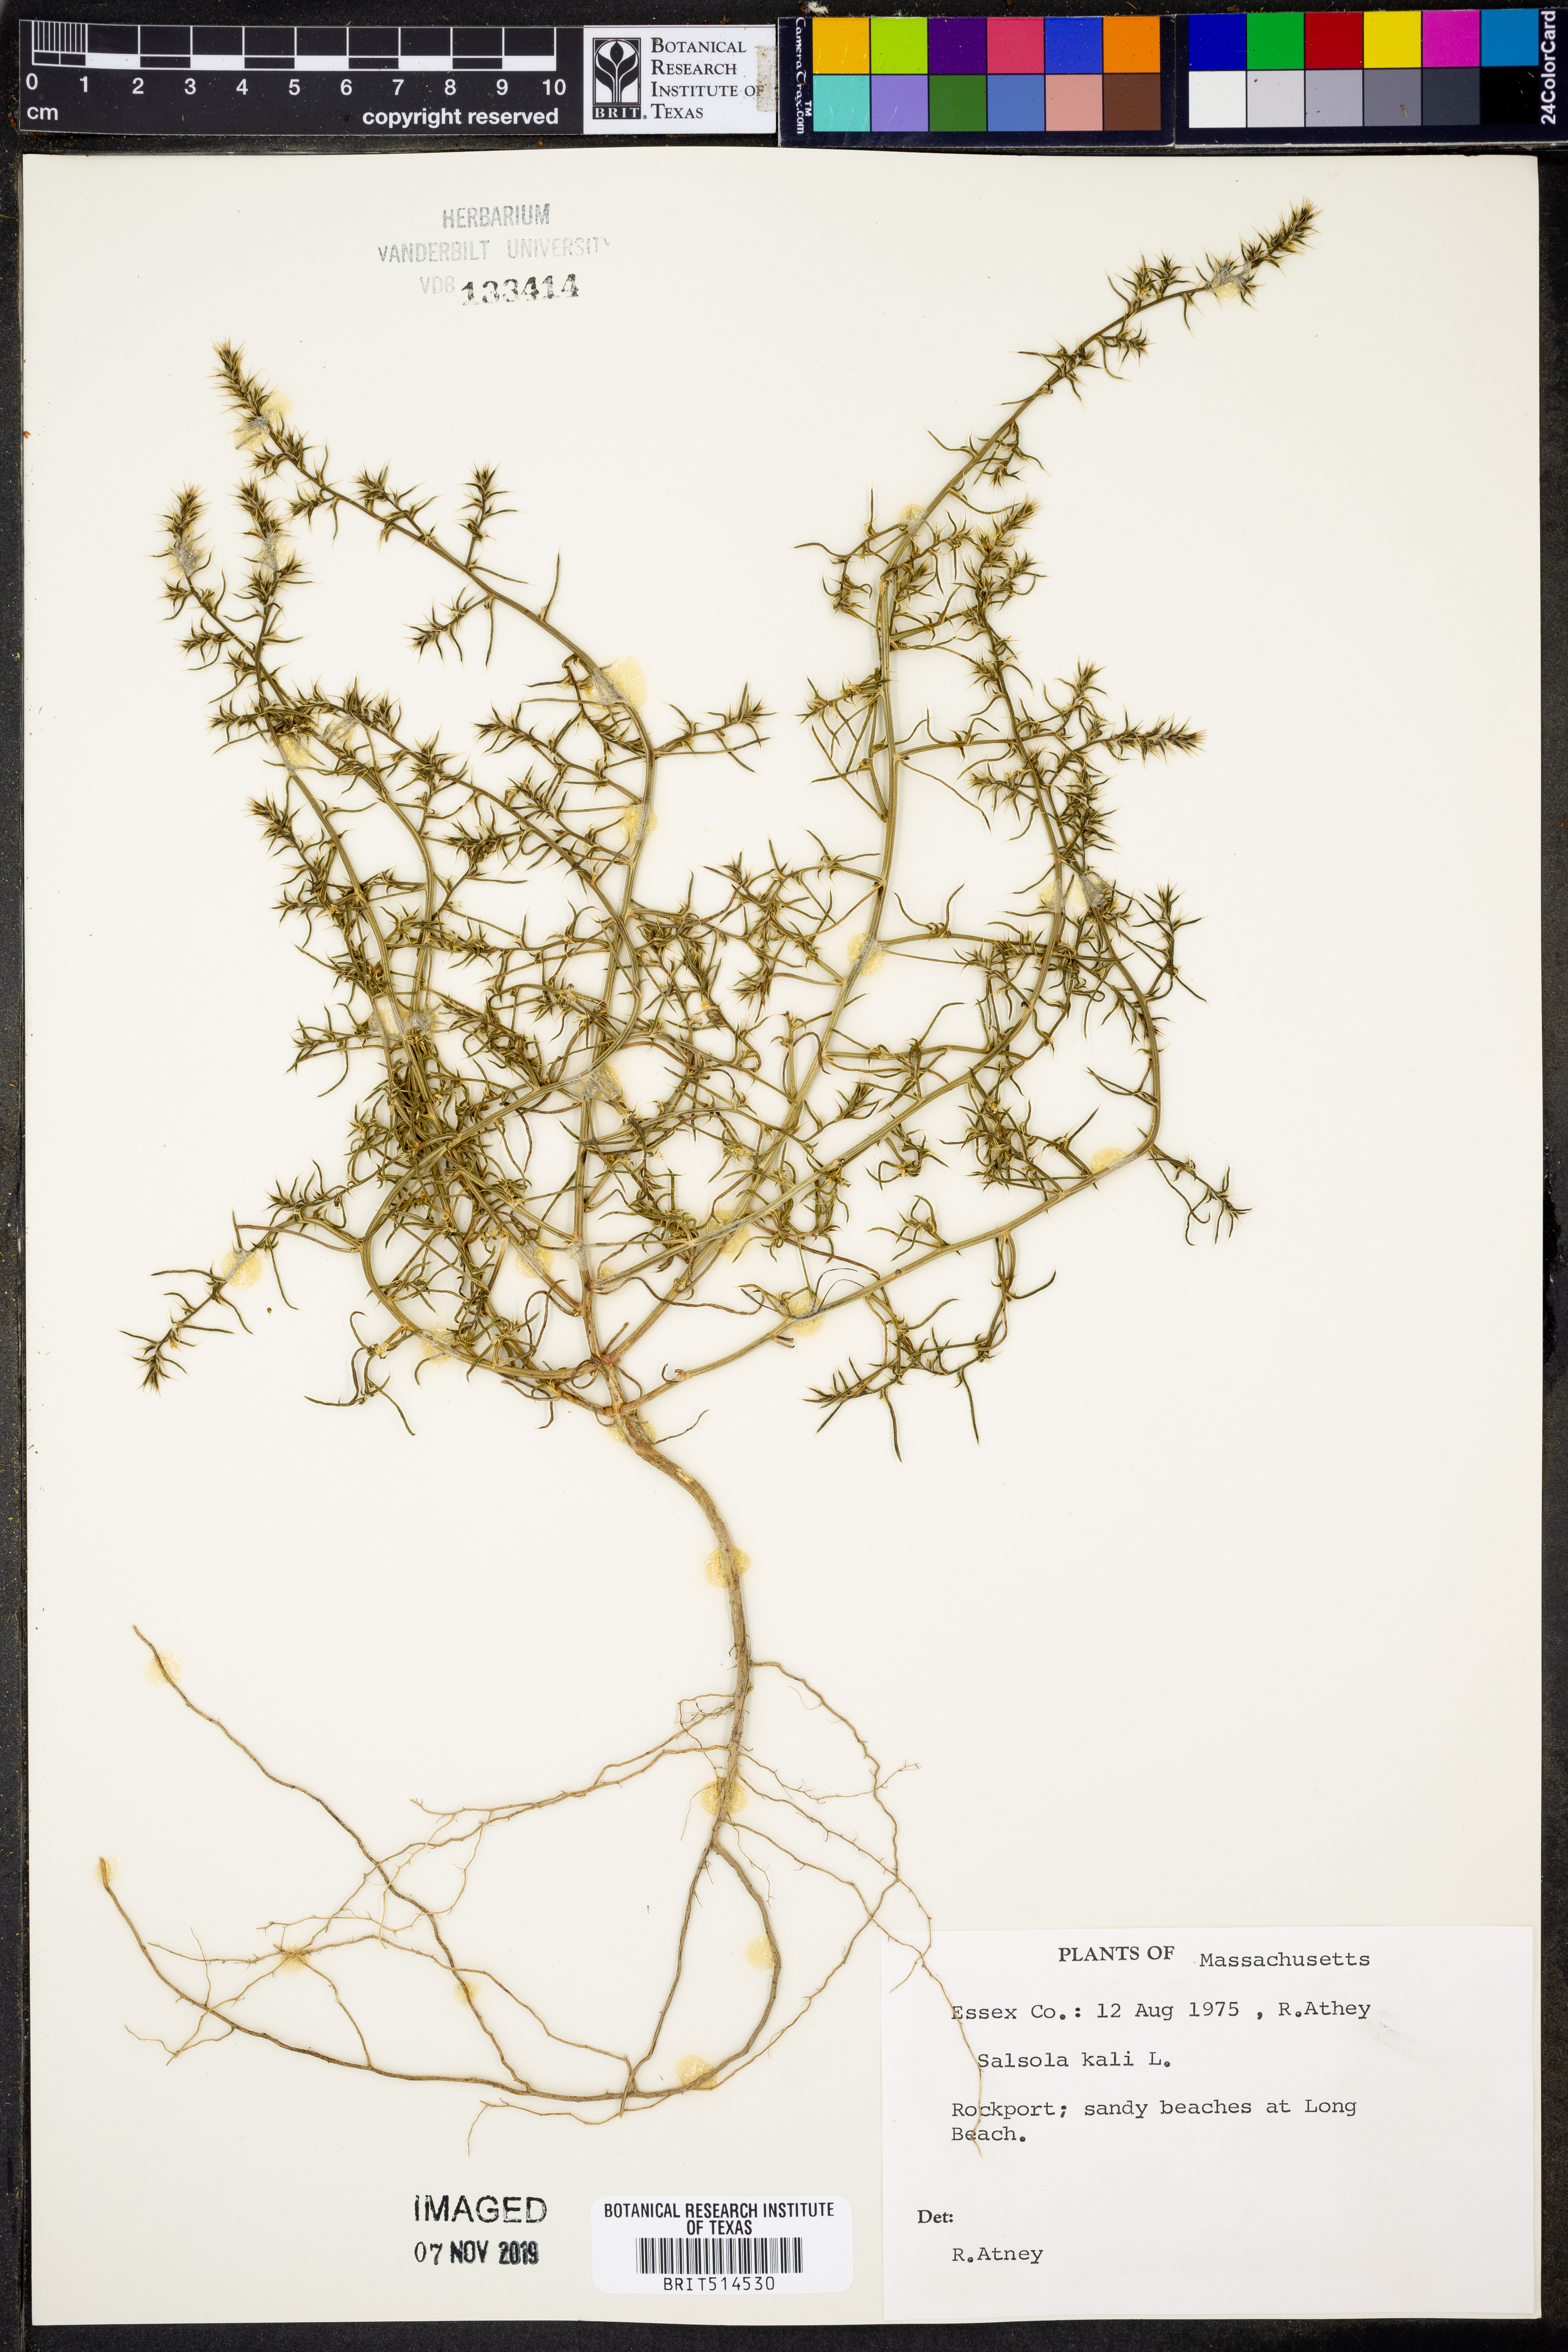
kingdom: Plantae
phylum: Tracheophyta
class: Magnoliopsida
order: Caryophyllales
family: Amaranthaceae
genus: Salsola
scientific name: Salsola kali
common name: Saltwort
